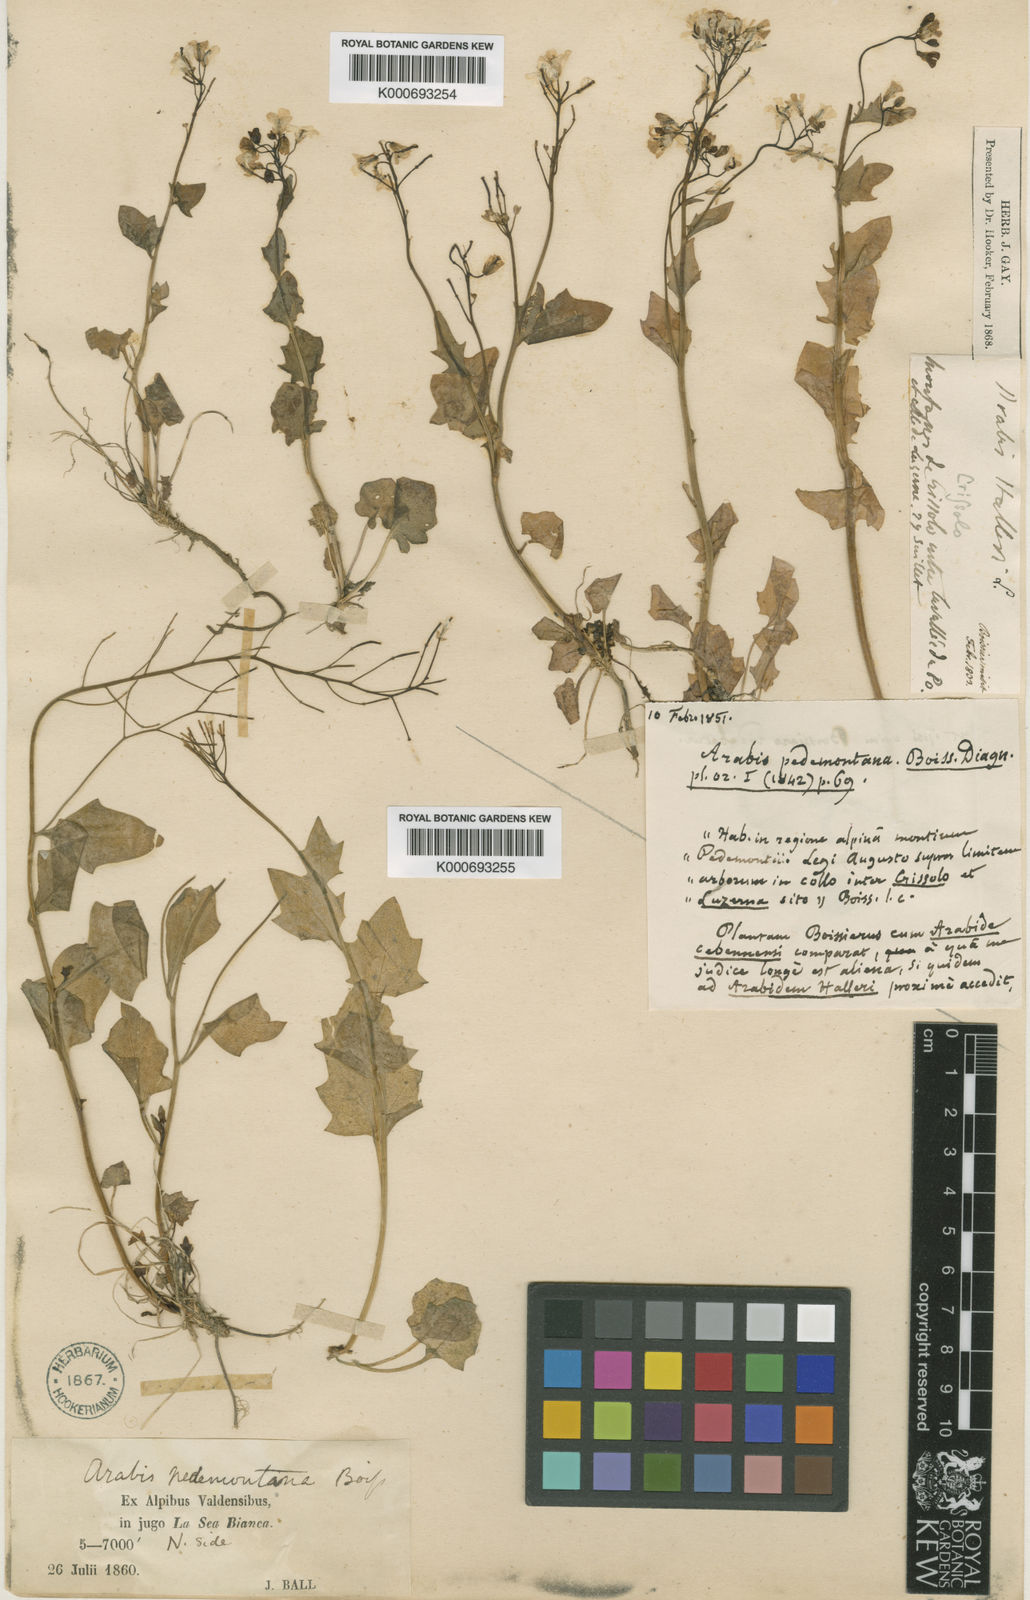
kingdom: Plantae
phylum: Tracheophyta
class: Magnoliopsida
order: Brassicales
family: Brassicaceae
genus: Arabidopsis
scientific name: Arabidopsis pedemontana
